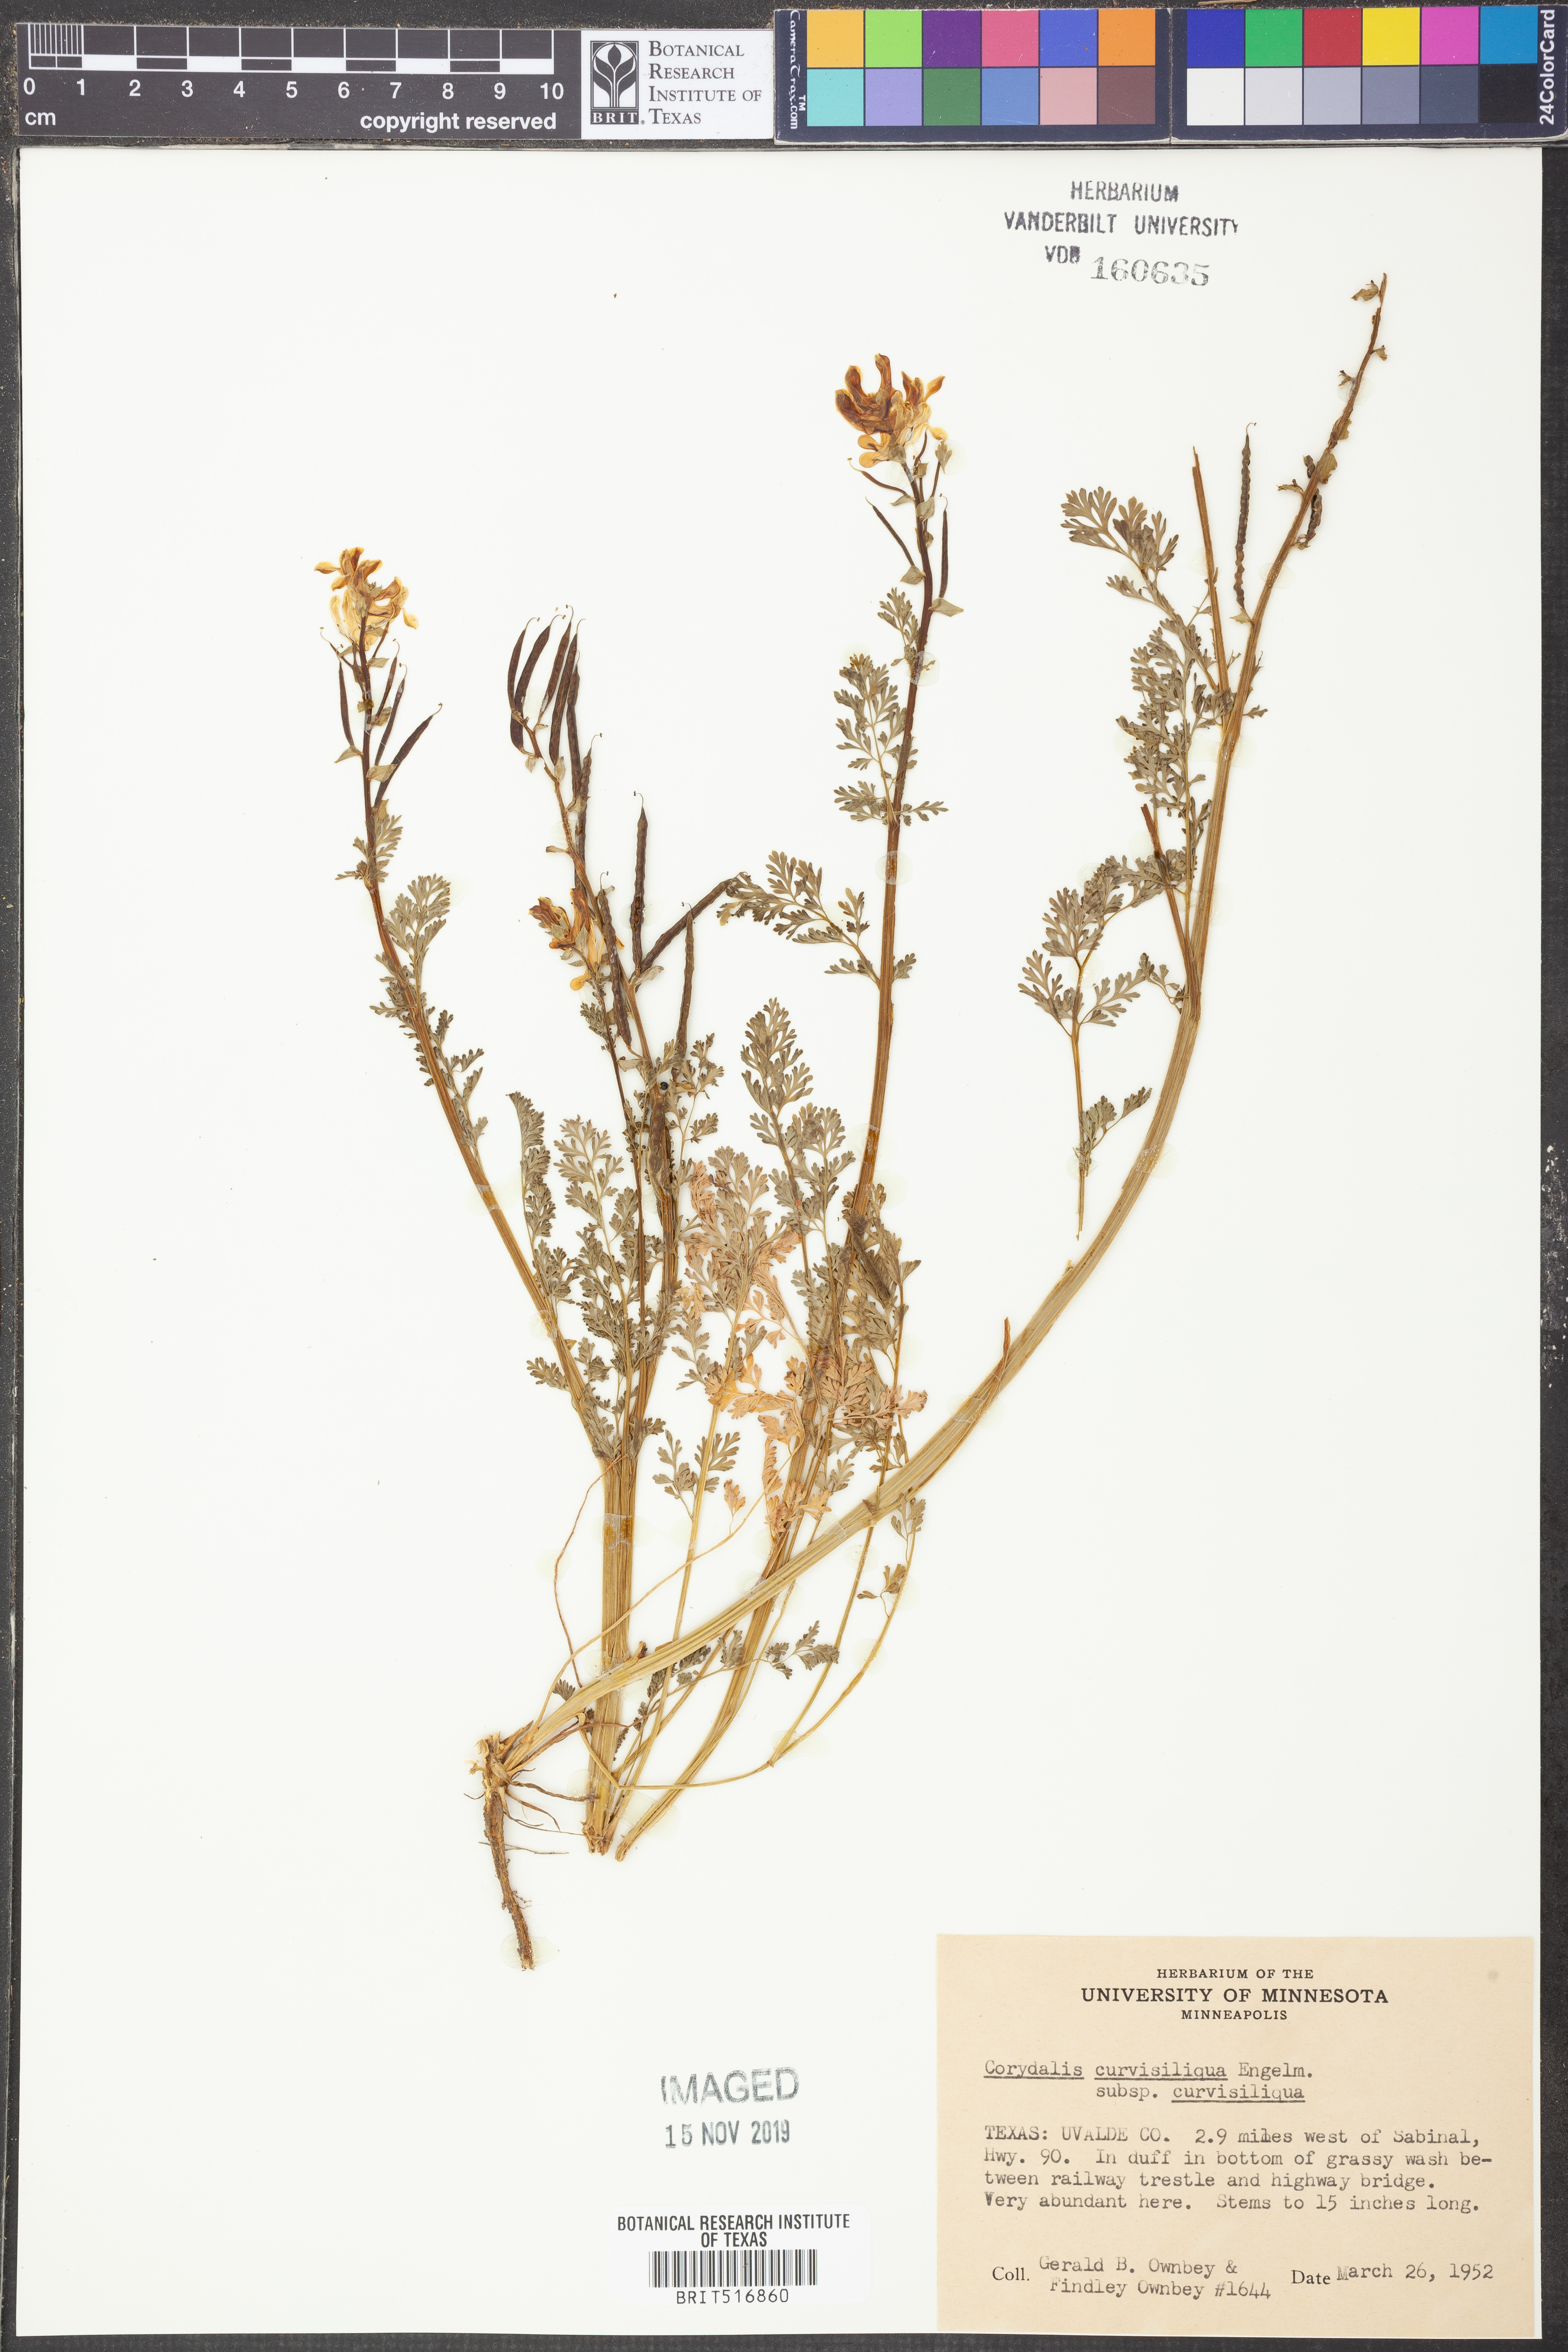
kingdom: Plantae
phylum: Tracheophyta
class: Magnoliopsida
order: Ranunculales
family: Papaveraceae
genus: Corydalis
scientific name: Corydalis curvisiliqua
